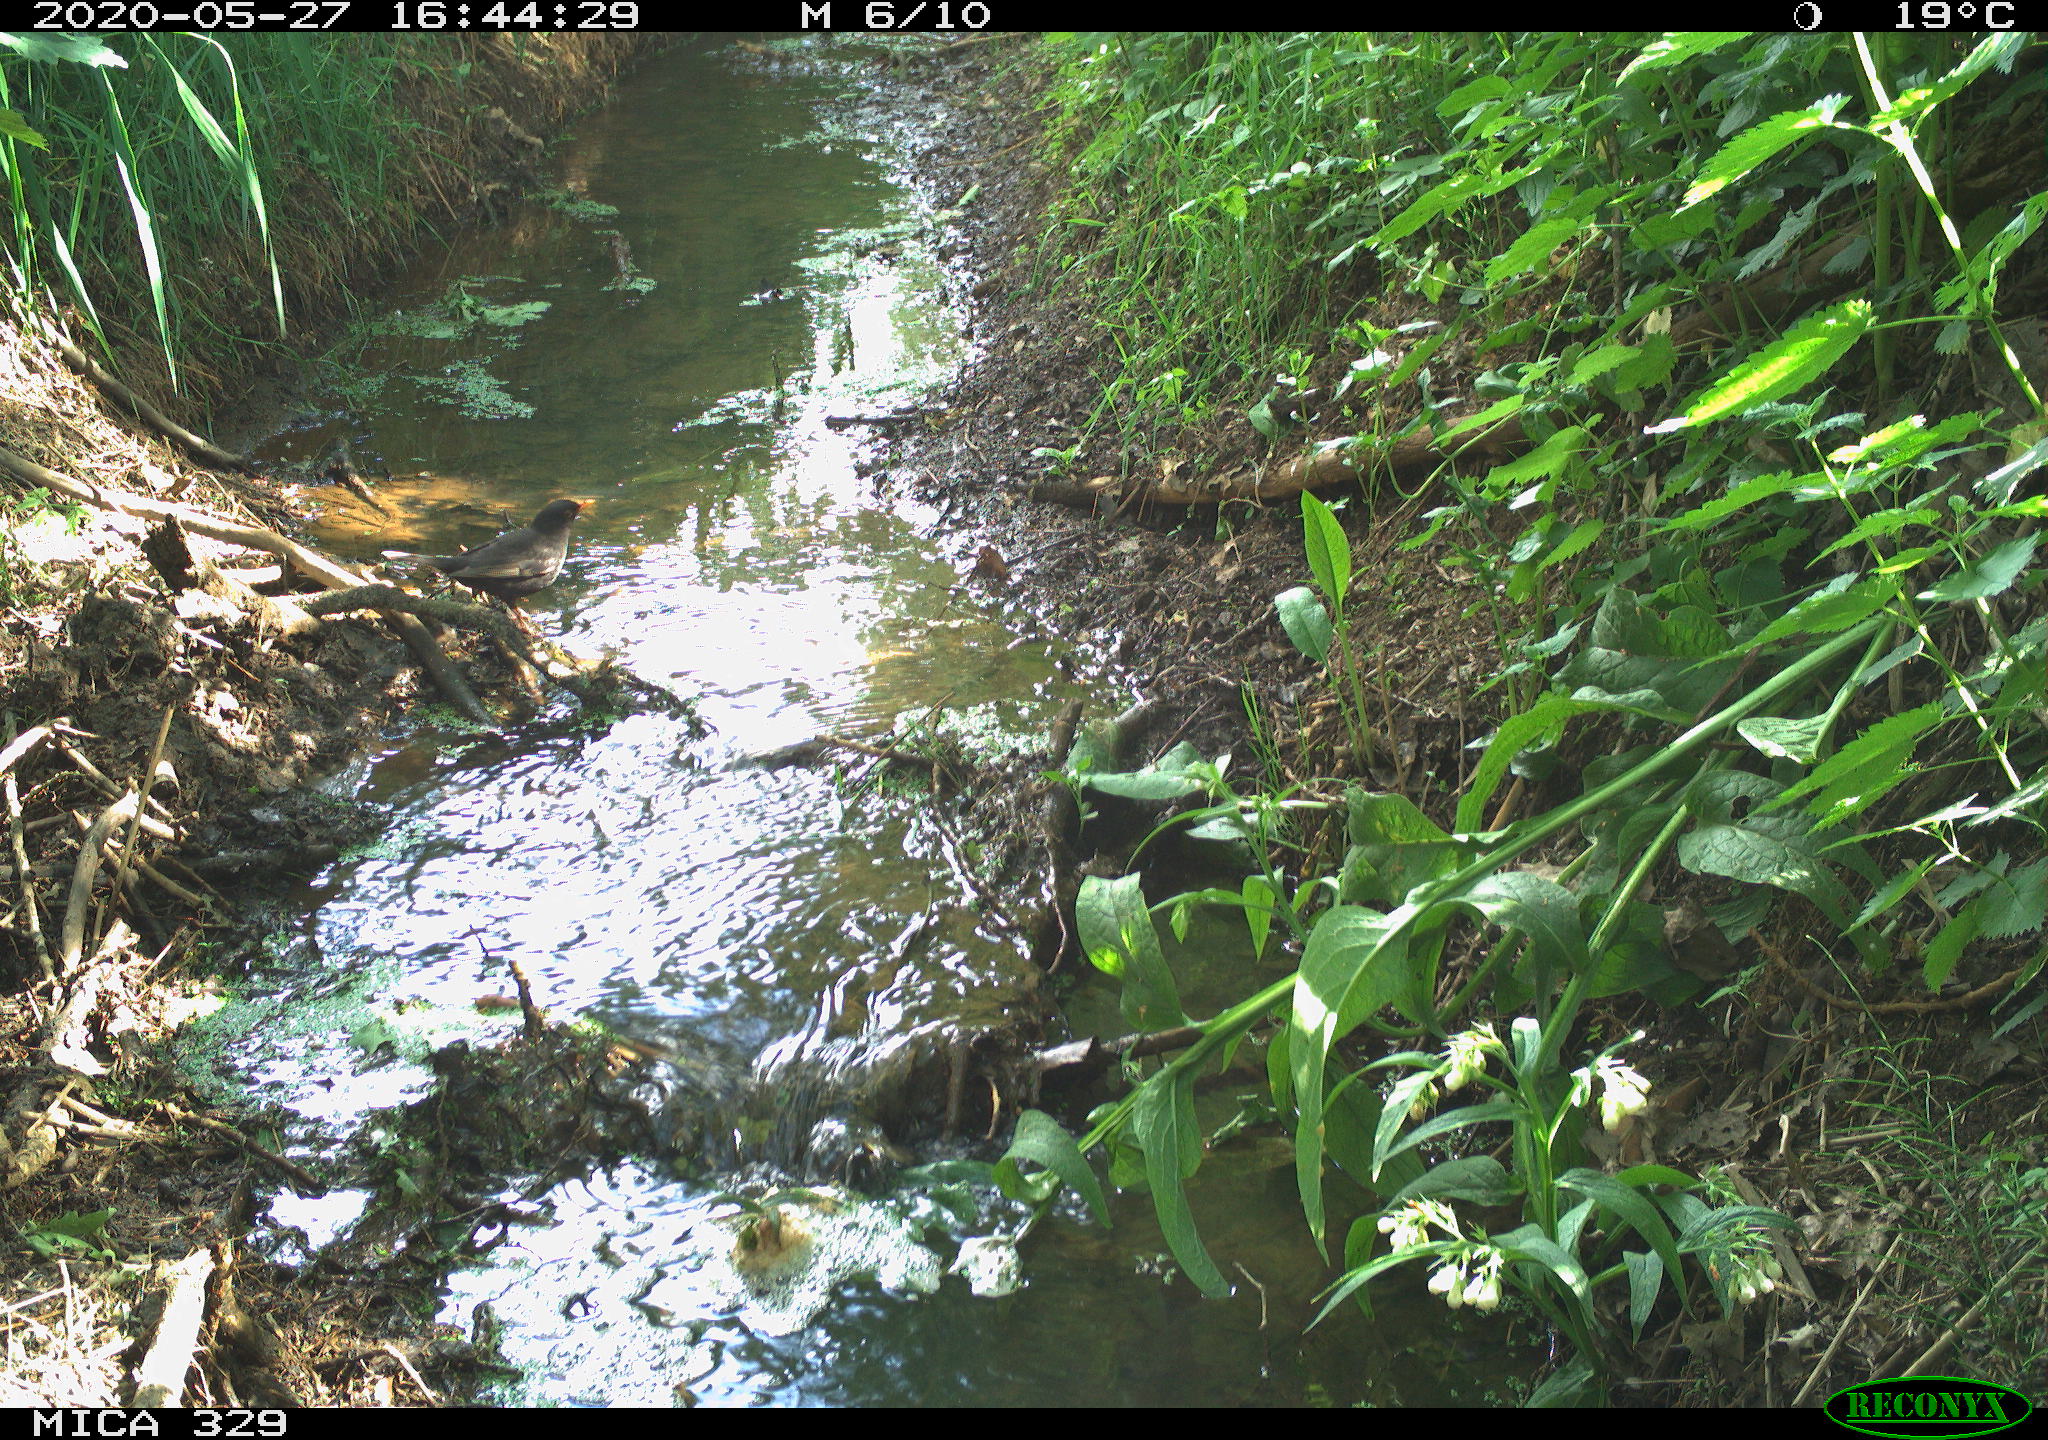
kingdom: Animalia
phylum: Chordata
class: Aves
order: Passeriformes
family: Turdidae
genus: Turdus
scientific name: Turdus merula
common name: Common blackbird
